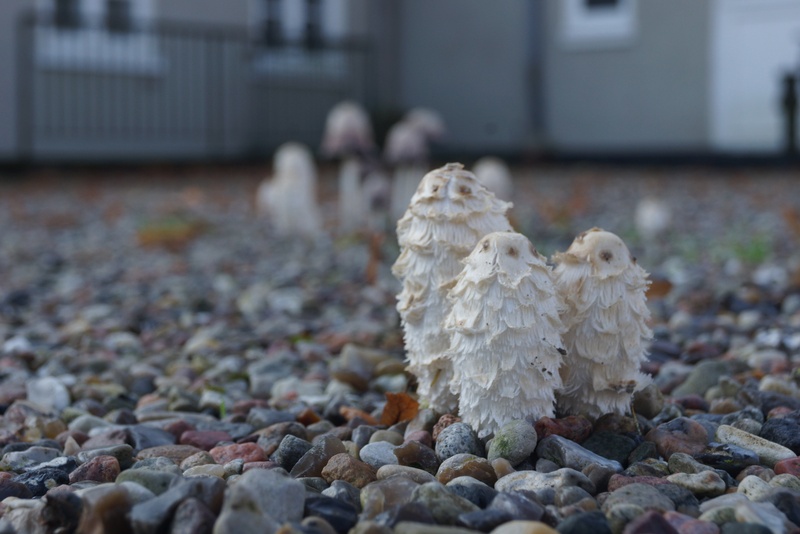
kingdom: Fungi
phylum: Basidiomycota
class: Agaricomycetes
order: Agaricales
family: Agaricaceae
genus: Coprinus
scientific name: Coprinus comatus
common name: stor parykhat
